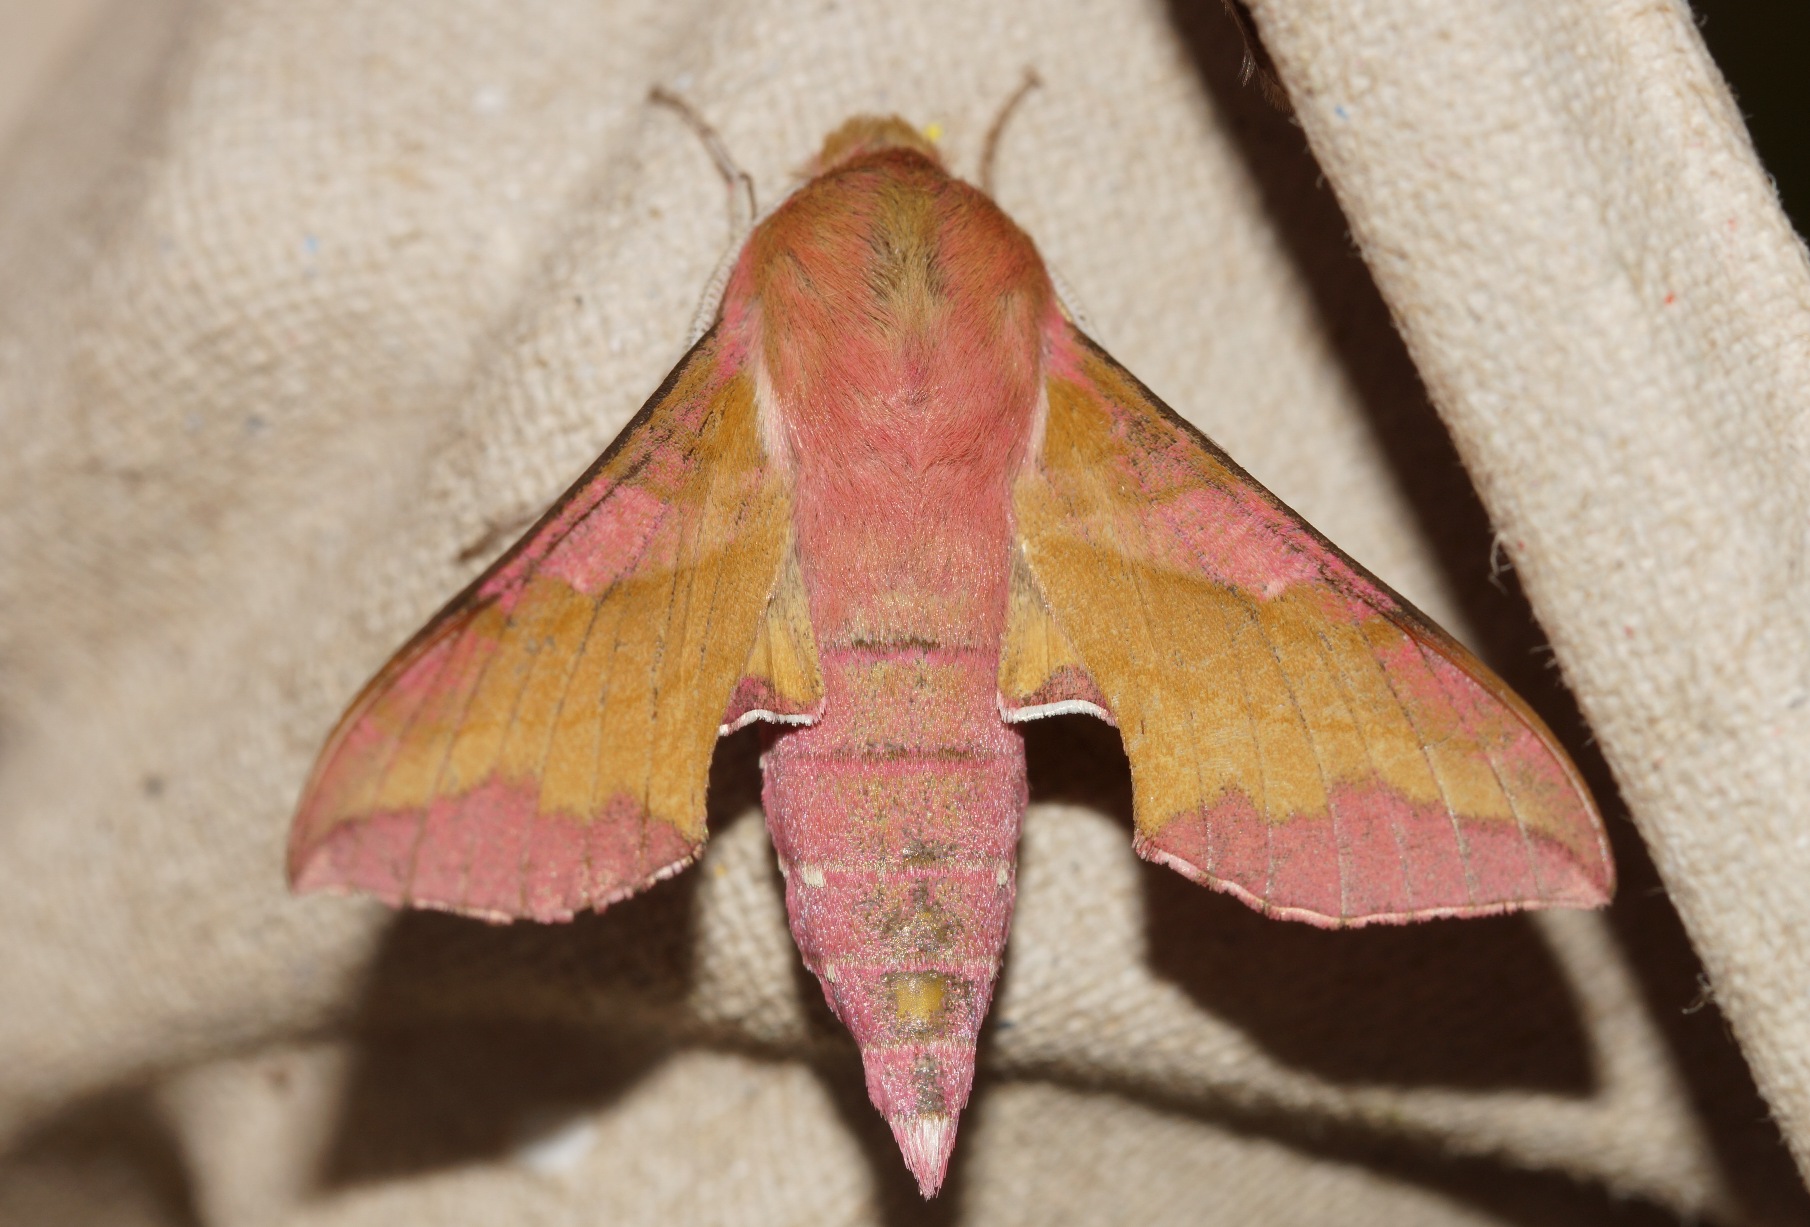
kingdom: Animalia
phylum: Arthropoda
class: Insecta
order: Lepidoptera
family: Sphingidae
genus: Deilephila
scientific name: Deilephila porcellus
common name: Lille vinsværmer
